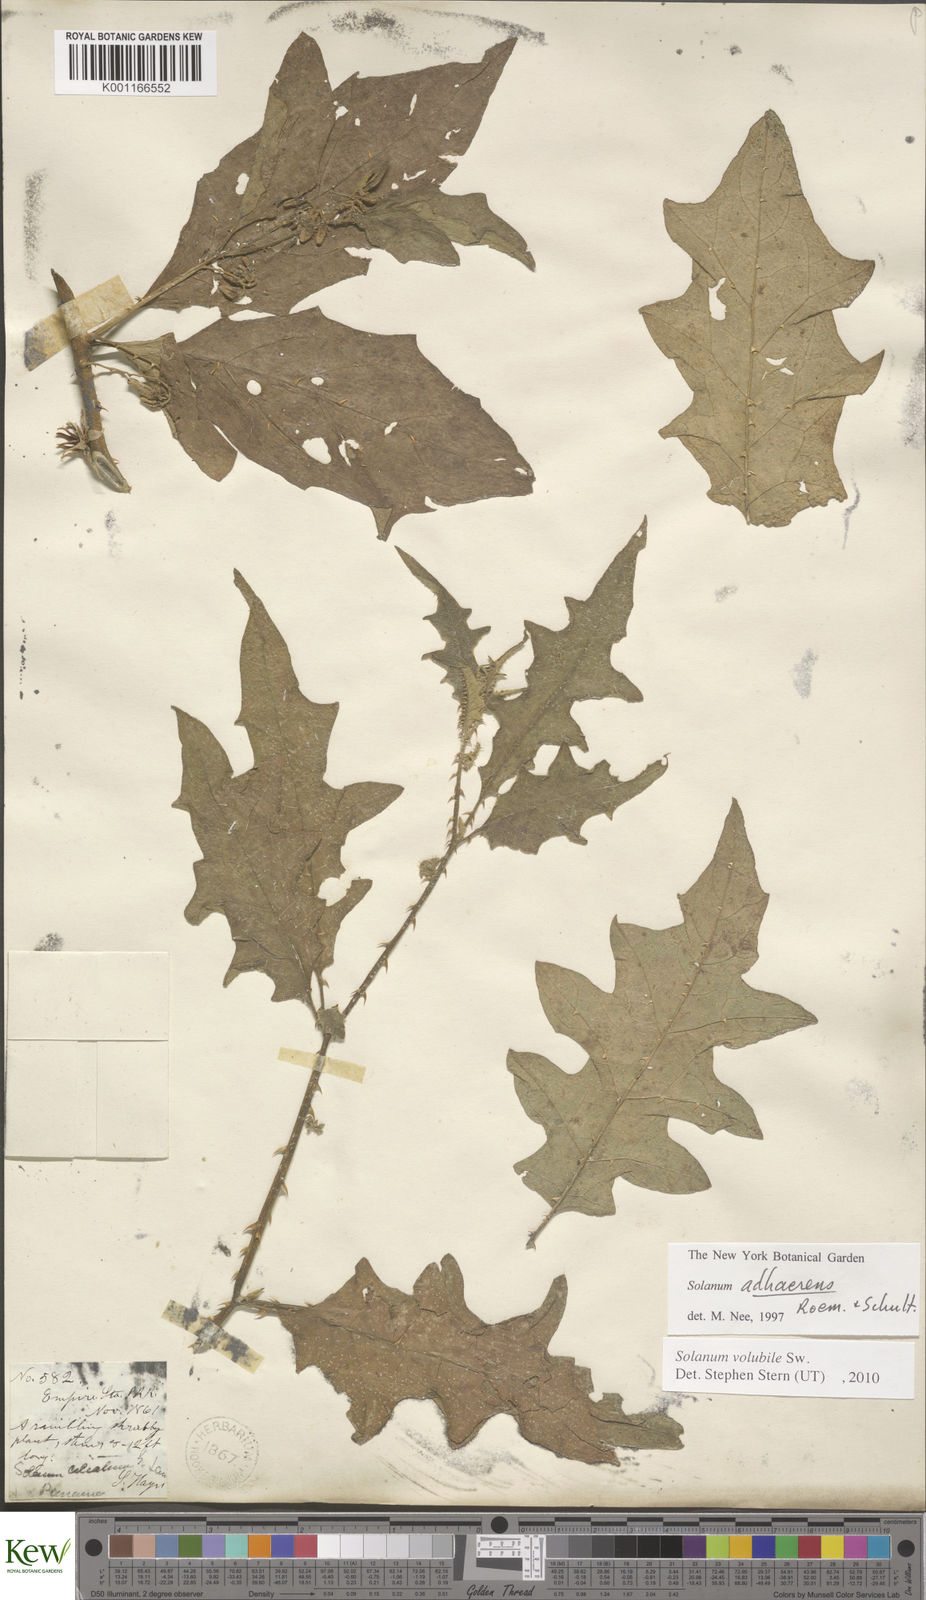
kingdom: Plantae
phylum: Tracheophyta
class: Magnoliopsida
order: Solanales
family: Solanaceae
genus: Solanum
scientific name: Solanum volubile
